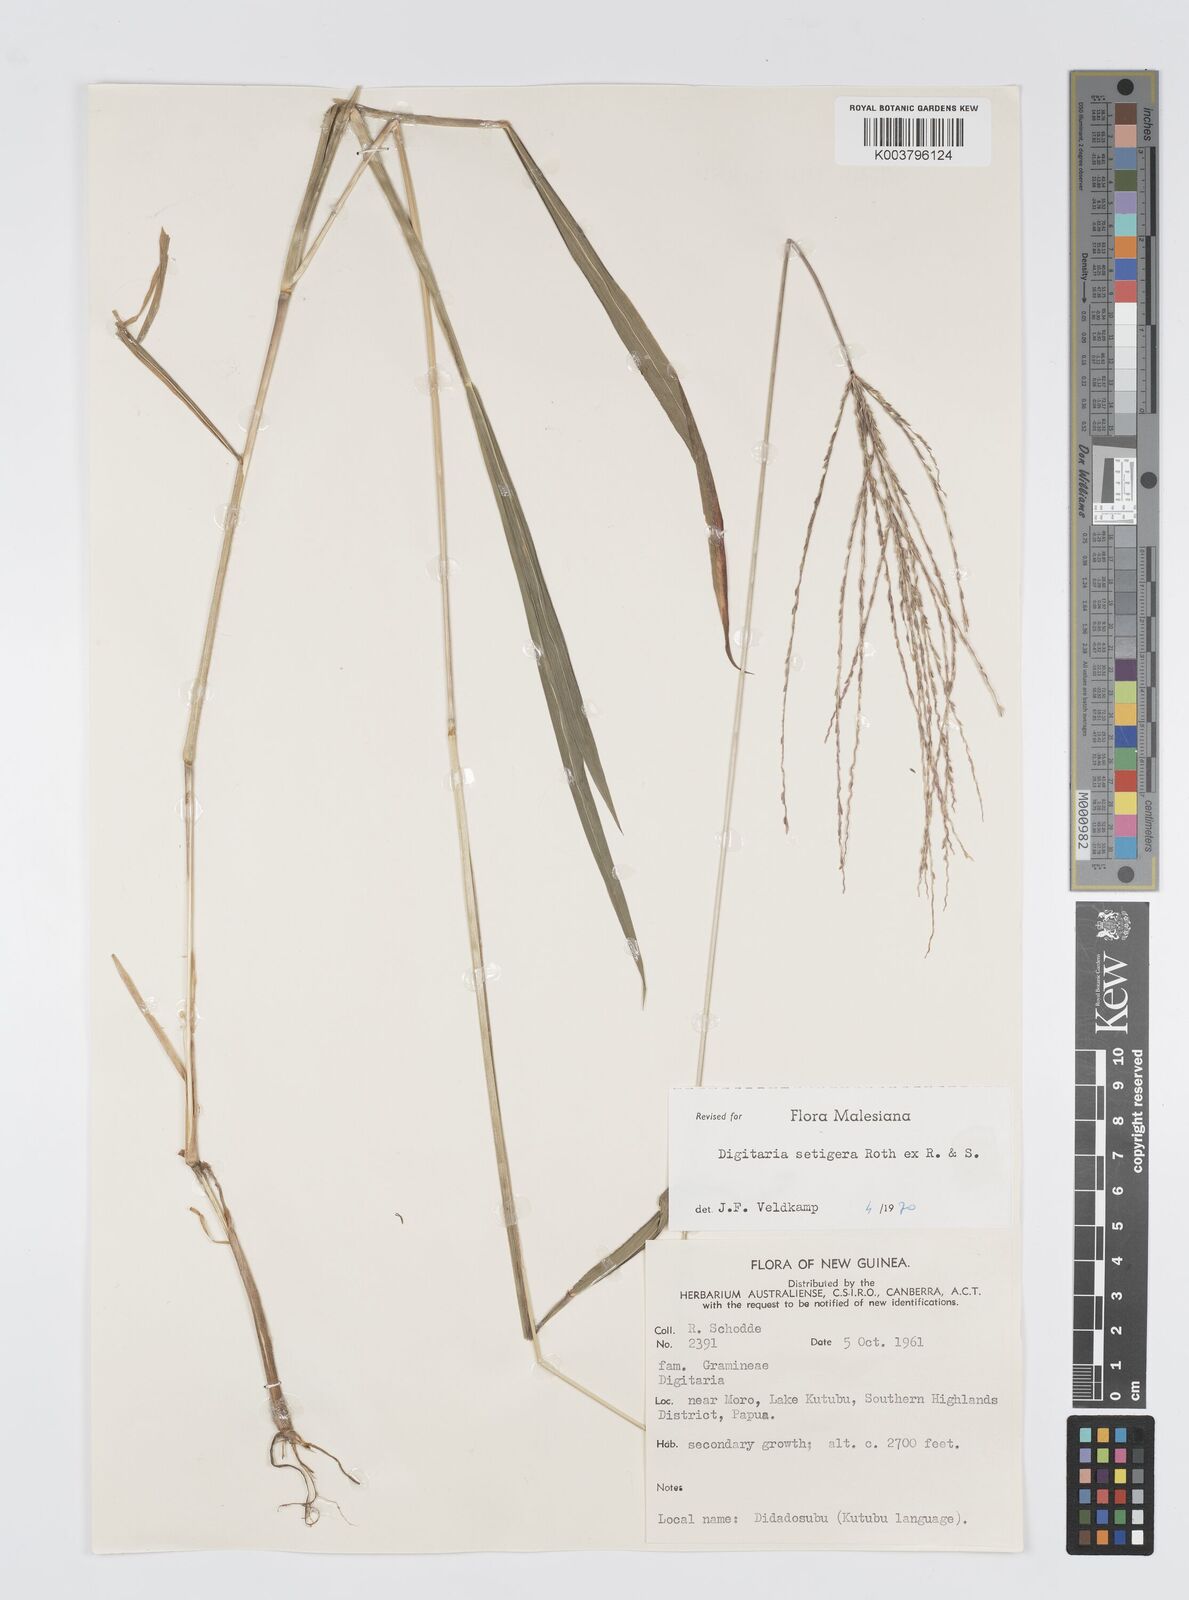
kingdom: Plantae
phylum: Tracheophyta
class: Liliopsida
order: Poales
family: Poaceae
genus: Digitaria
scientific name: Digitaria setigera
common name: East indian crabgrass
